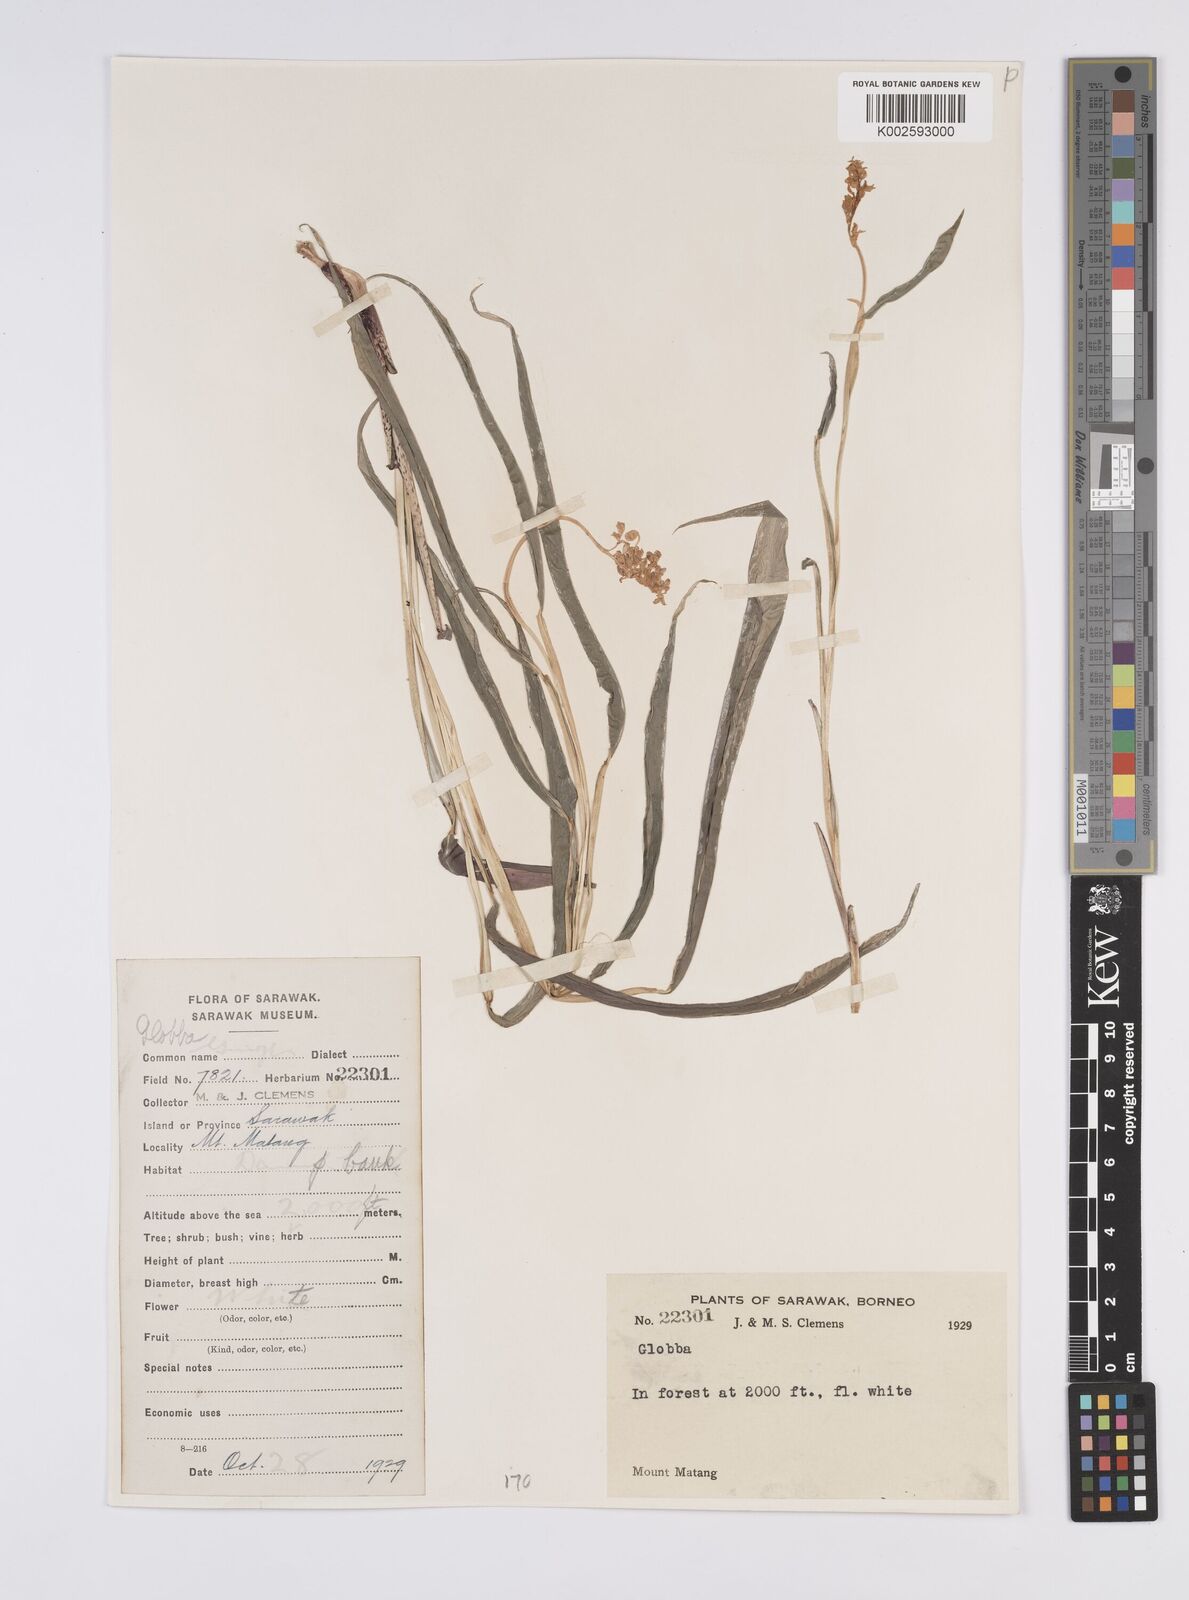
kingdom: Plantae
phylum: Tracheophyta
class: Liliopsida
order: Zingiberales
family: Zingiberaceae
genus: Globba
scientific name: Globba brachyanthera
